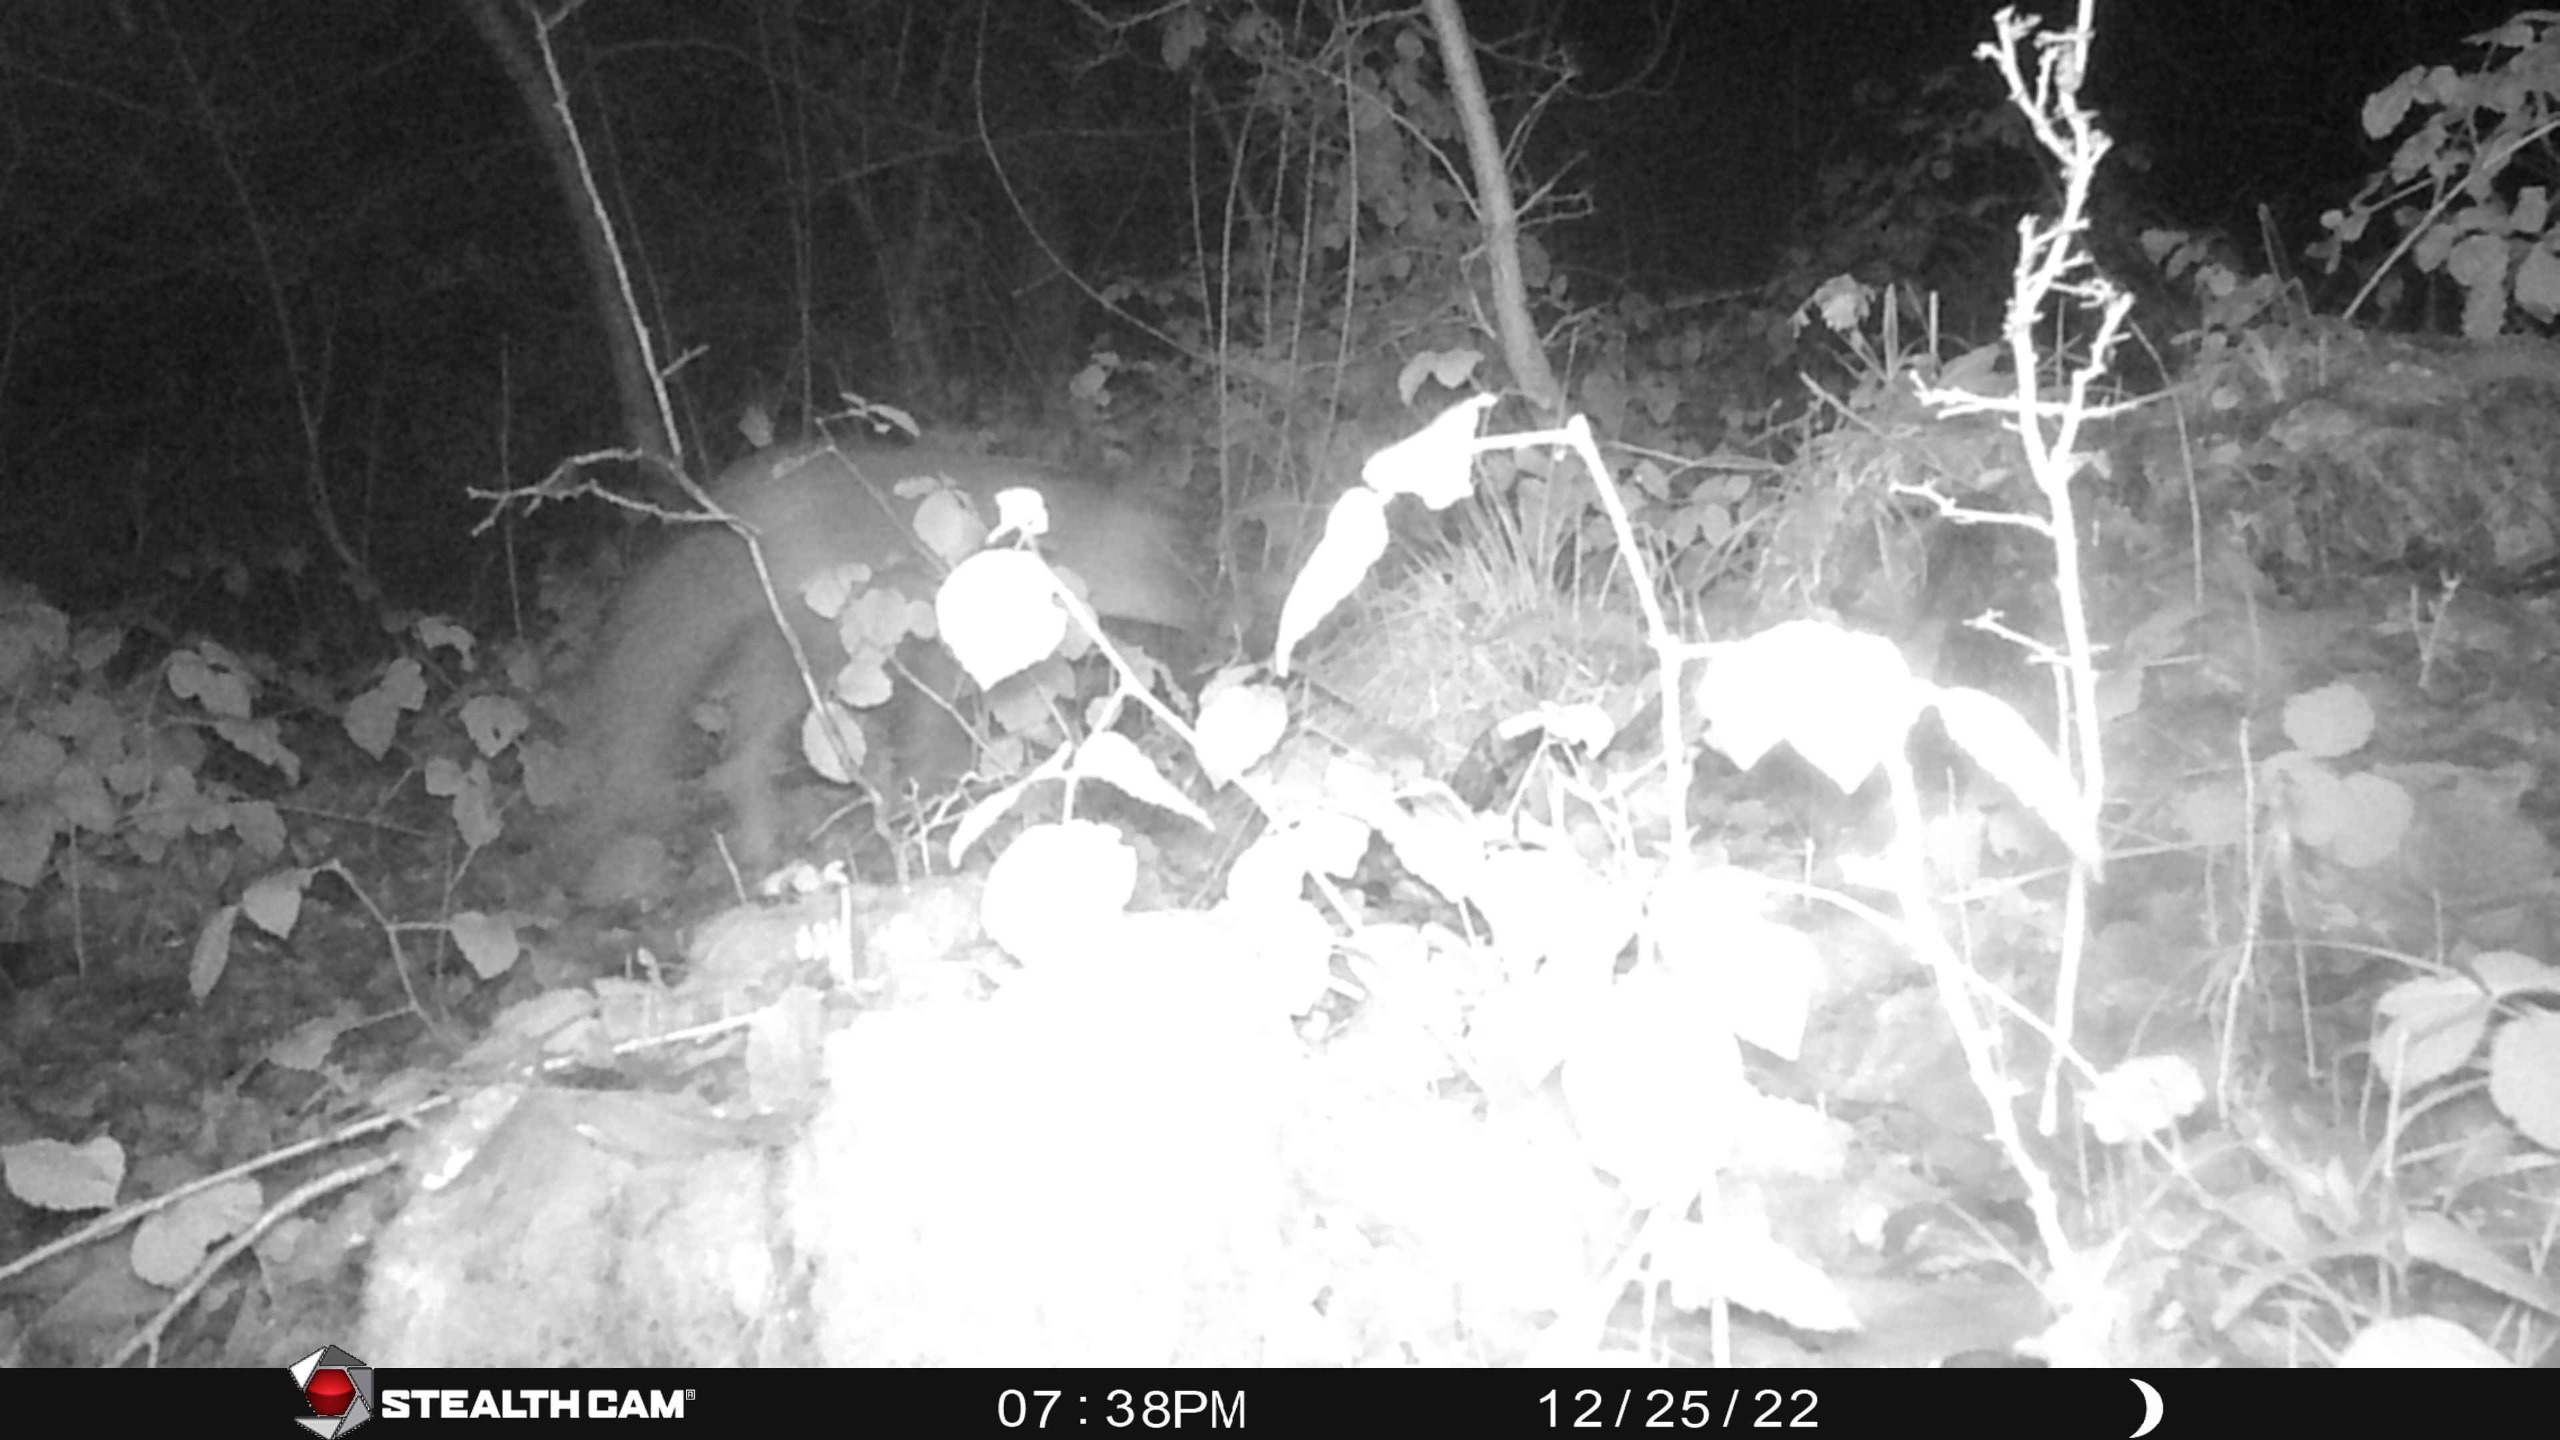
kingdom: Animalia
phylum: Chordata
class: Mammalia
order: Carnivora
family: Canidae
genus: Vulpes
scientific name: Vulpes vulpes
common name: Ræv
